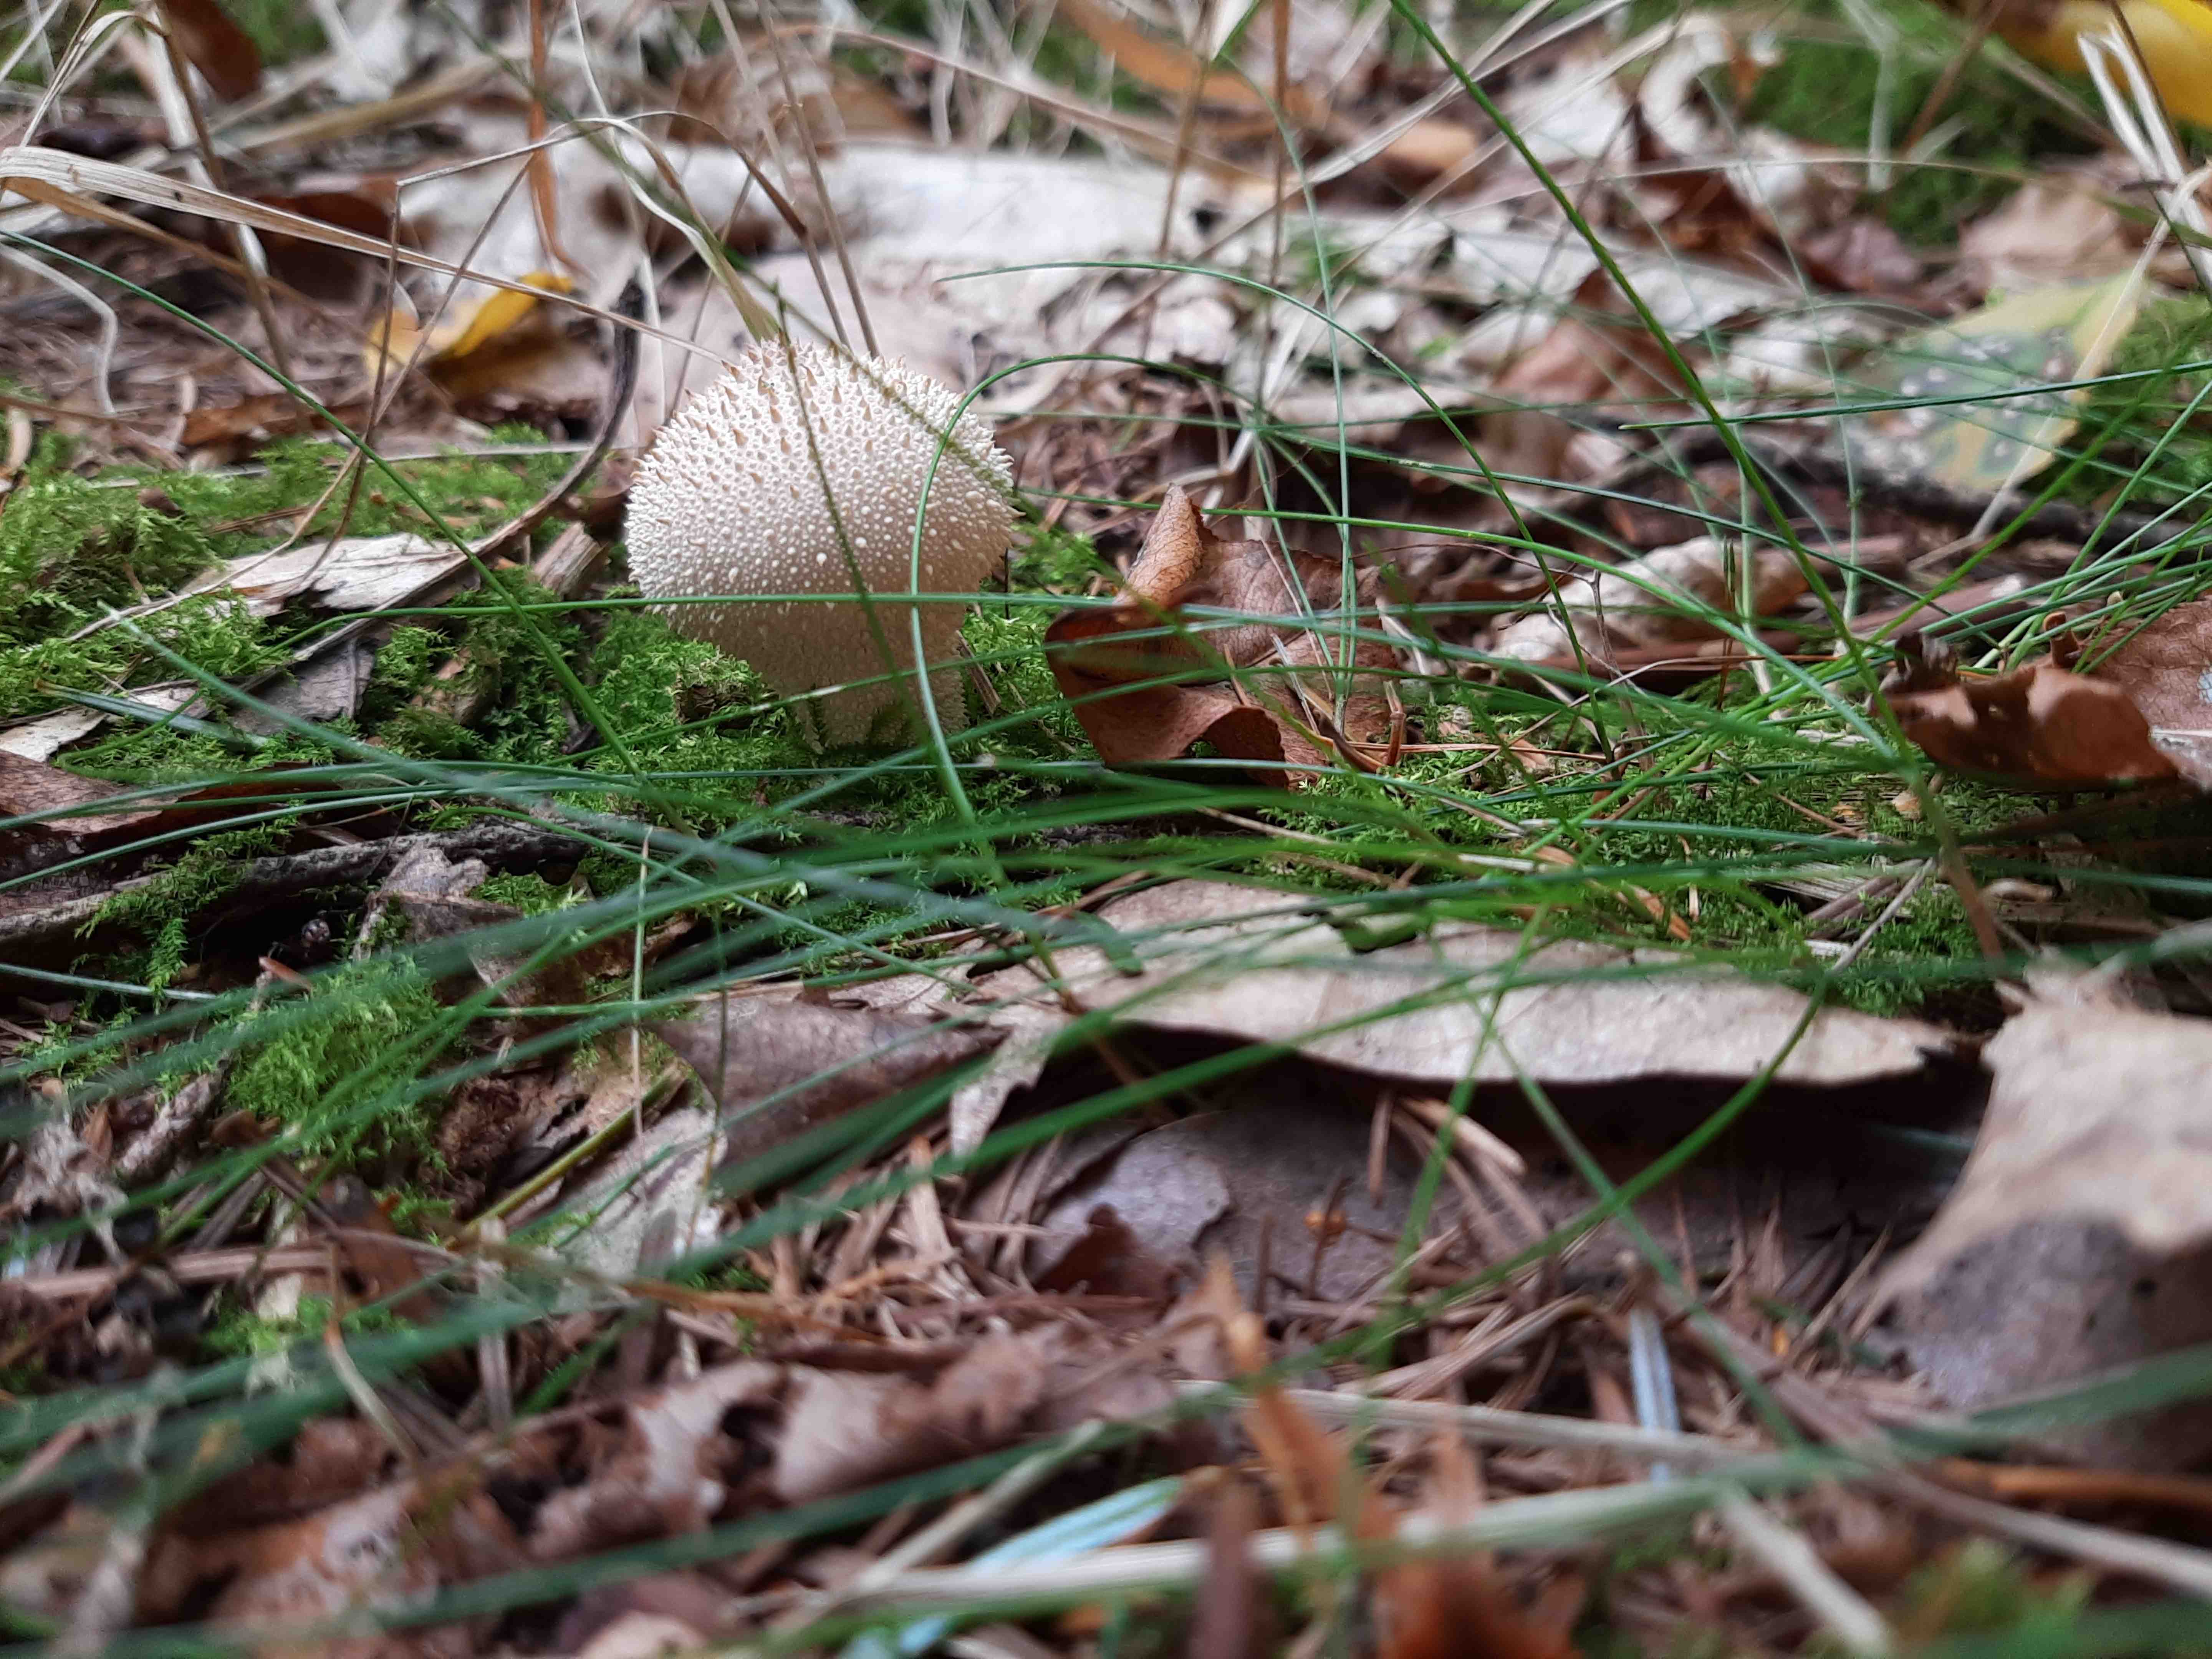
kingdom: Fungi
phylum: Basidiomycota
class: Agaricomycetes
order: Agaricales
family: Lycoperdaceae
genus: Lycoperdon
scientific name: Lycoperdon perlatum
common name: krystal-støvbold
